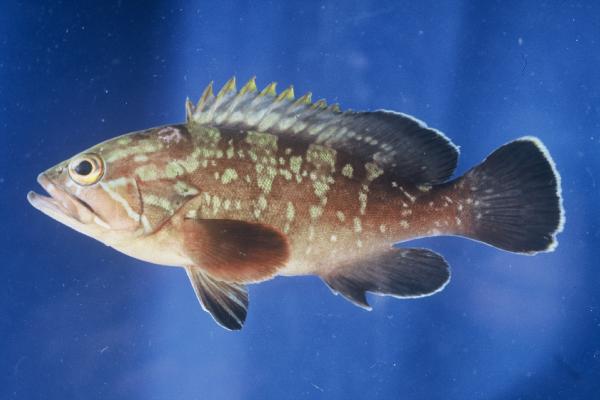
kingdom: Animalia
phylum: Chordata
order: Perciformes
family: Serranidae
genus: Epinephelus
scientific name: Epinephelus marginatus
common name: Dusky grouper
